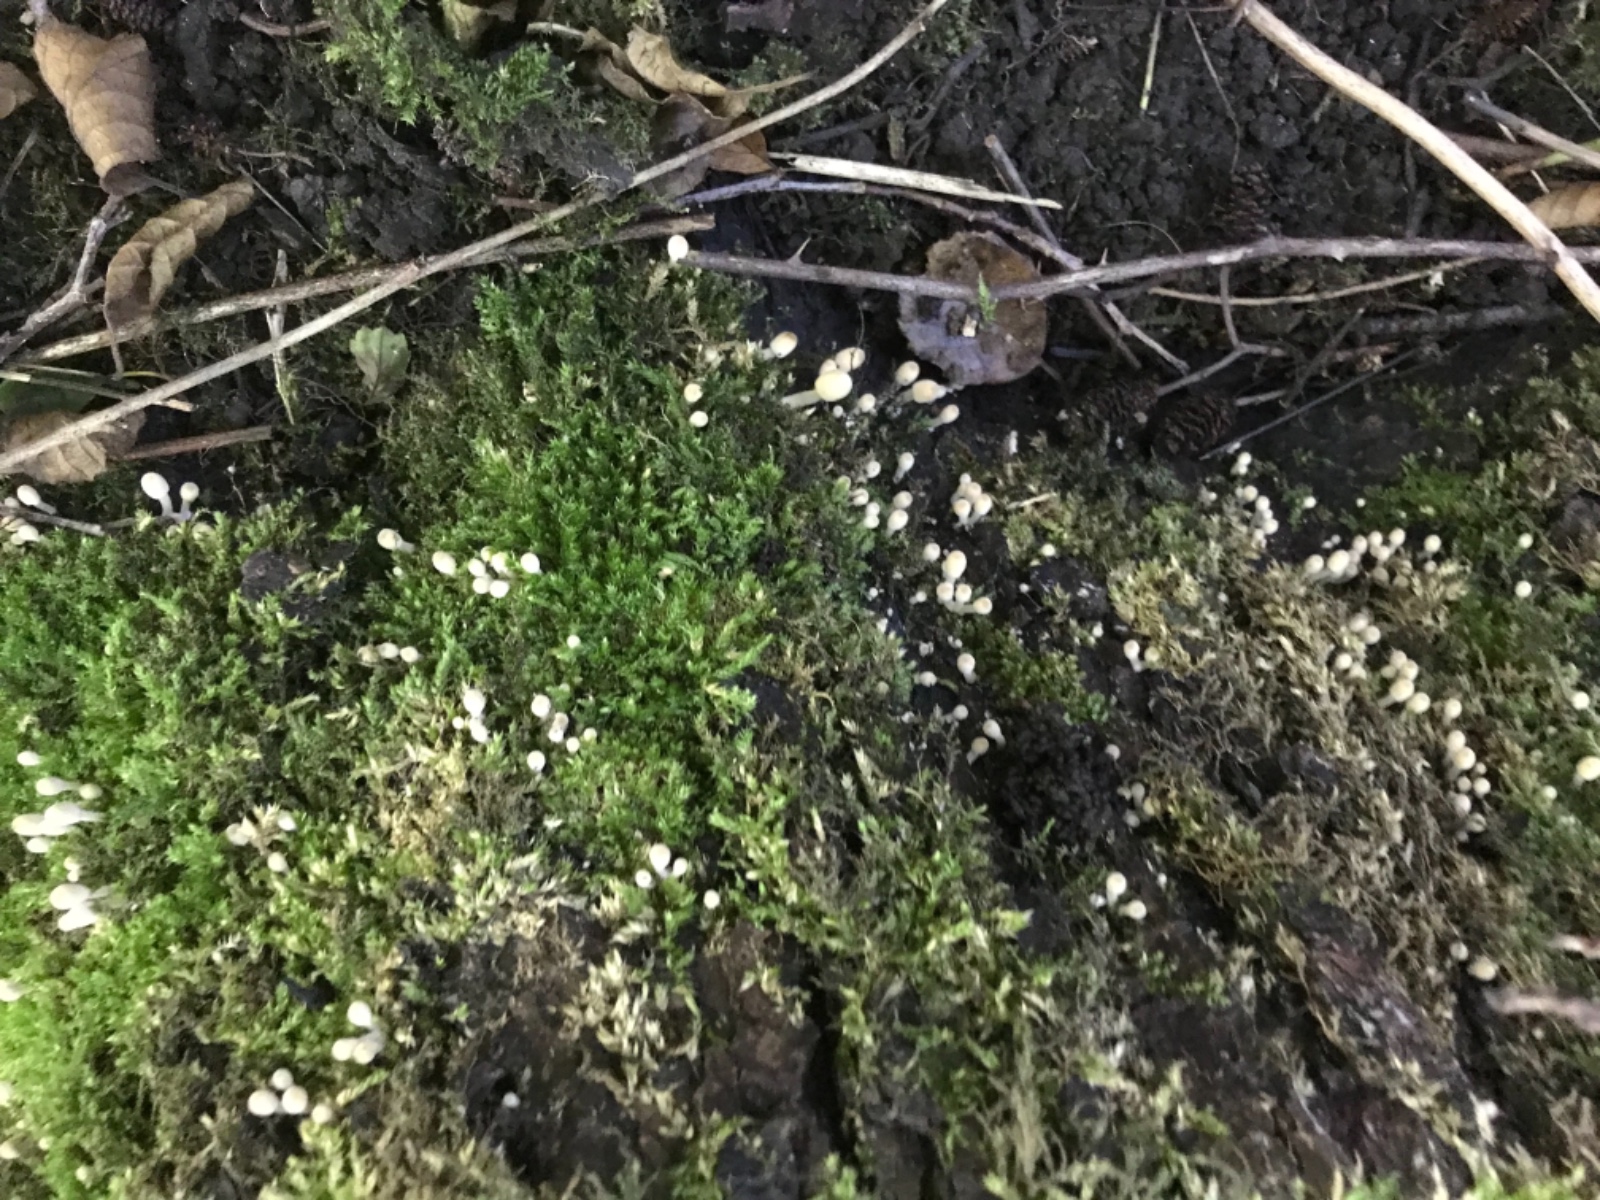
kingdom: Fungi
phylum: Basidiomycota
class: Agaricomycetes
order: Agaricales
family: Psathyrellaceae
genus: Coprinellus
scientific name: Coprinellus disseminatus
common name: bredsået blækhat
